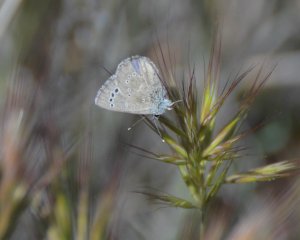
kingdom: Animalia
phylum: Arthropoda
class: Insecta
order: Lepidoptera
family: Lycaenidae
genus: Glaucopsyche
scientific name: Glaucopsyche lygdamus
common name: Silvery Blue
